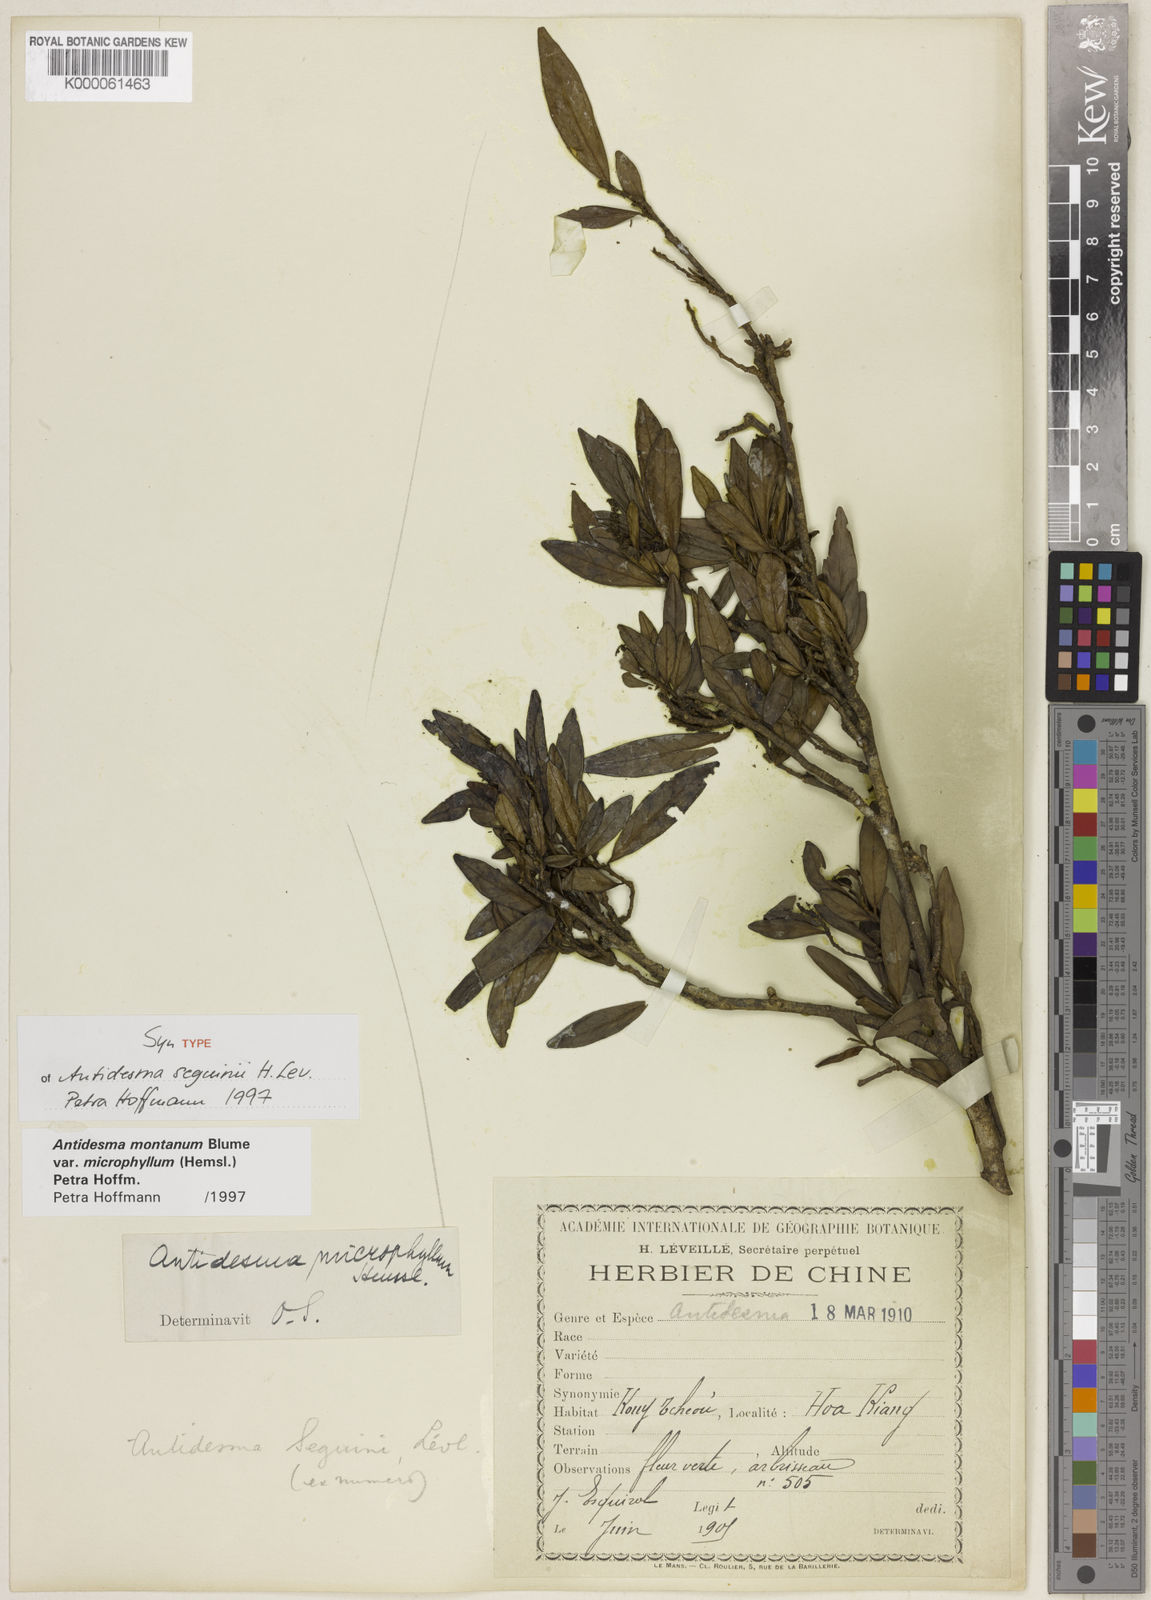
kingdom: Plantae
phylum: Tracheophyta
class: Magnoliopsida
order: Malpighiales
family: Phyllanthaceae
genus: Antidesma
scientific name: Antidesma montanum
